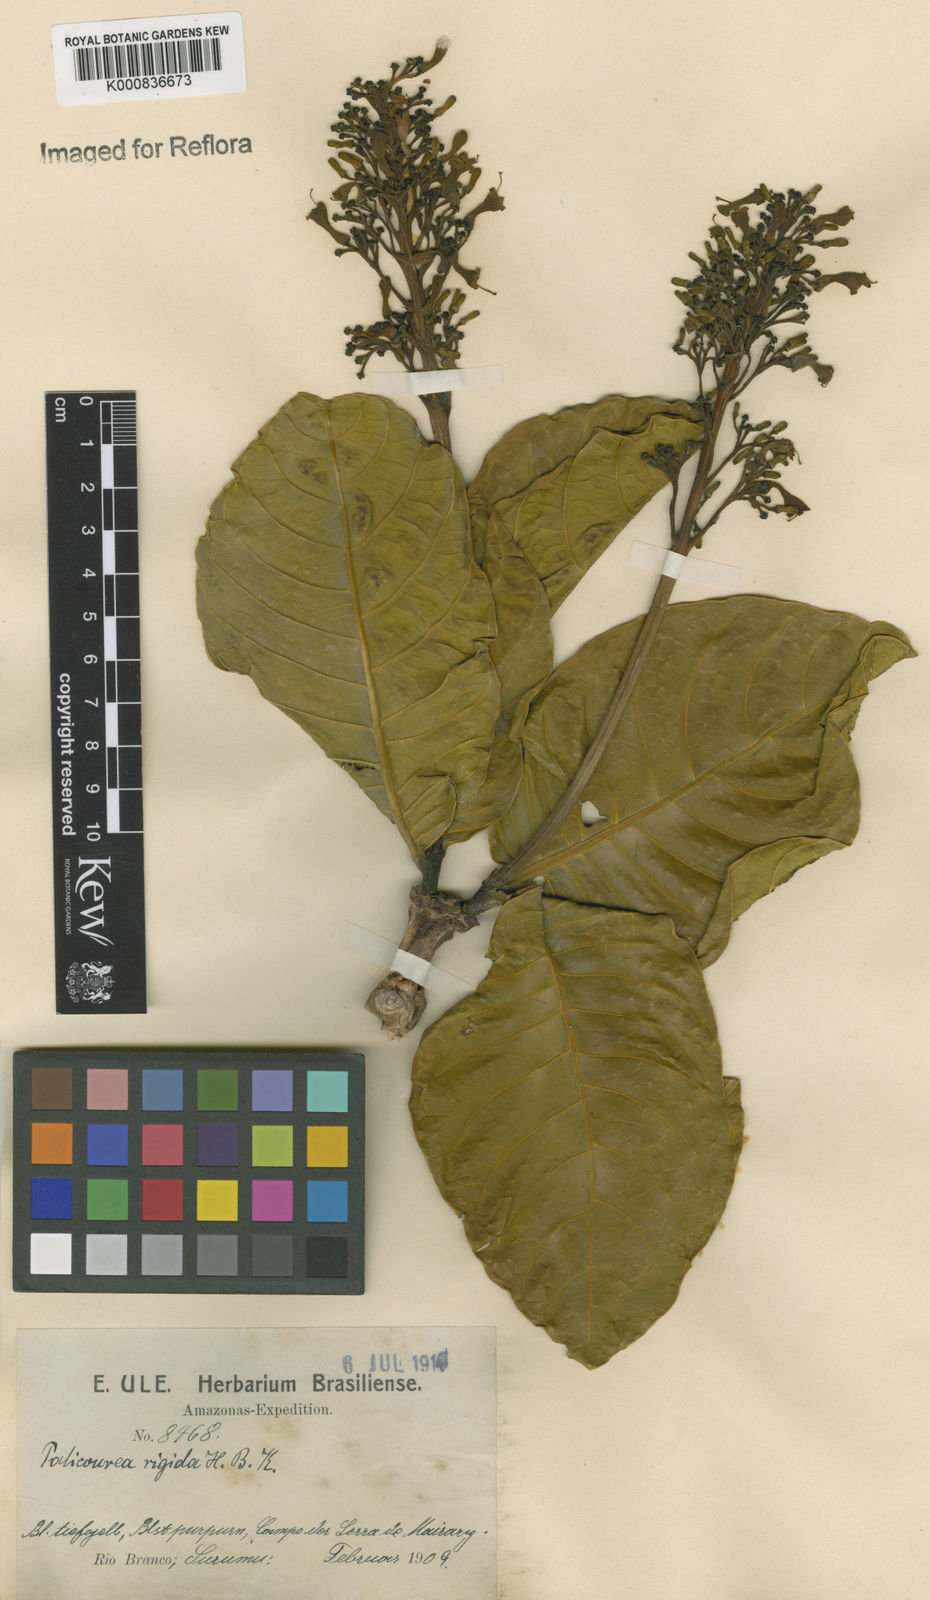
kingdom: Plantae
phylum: Tracheophyta
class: Magnoliopsida
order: Gentianales
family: Rubiaceae
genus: Palicourea
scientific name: Palicourea rigida
